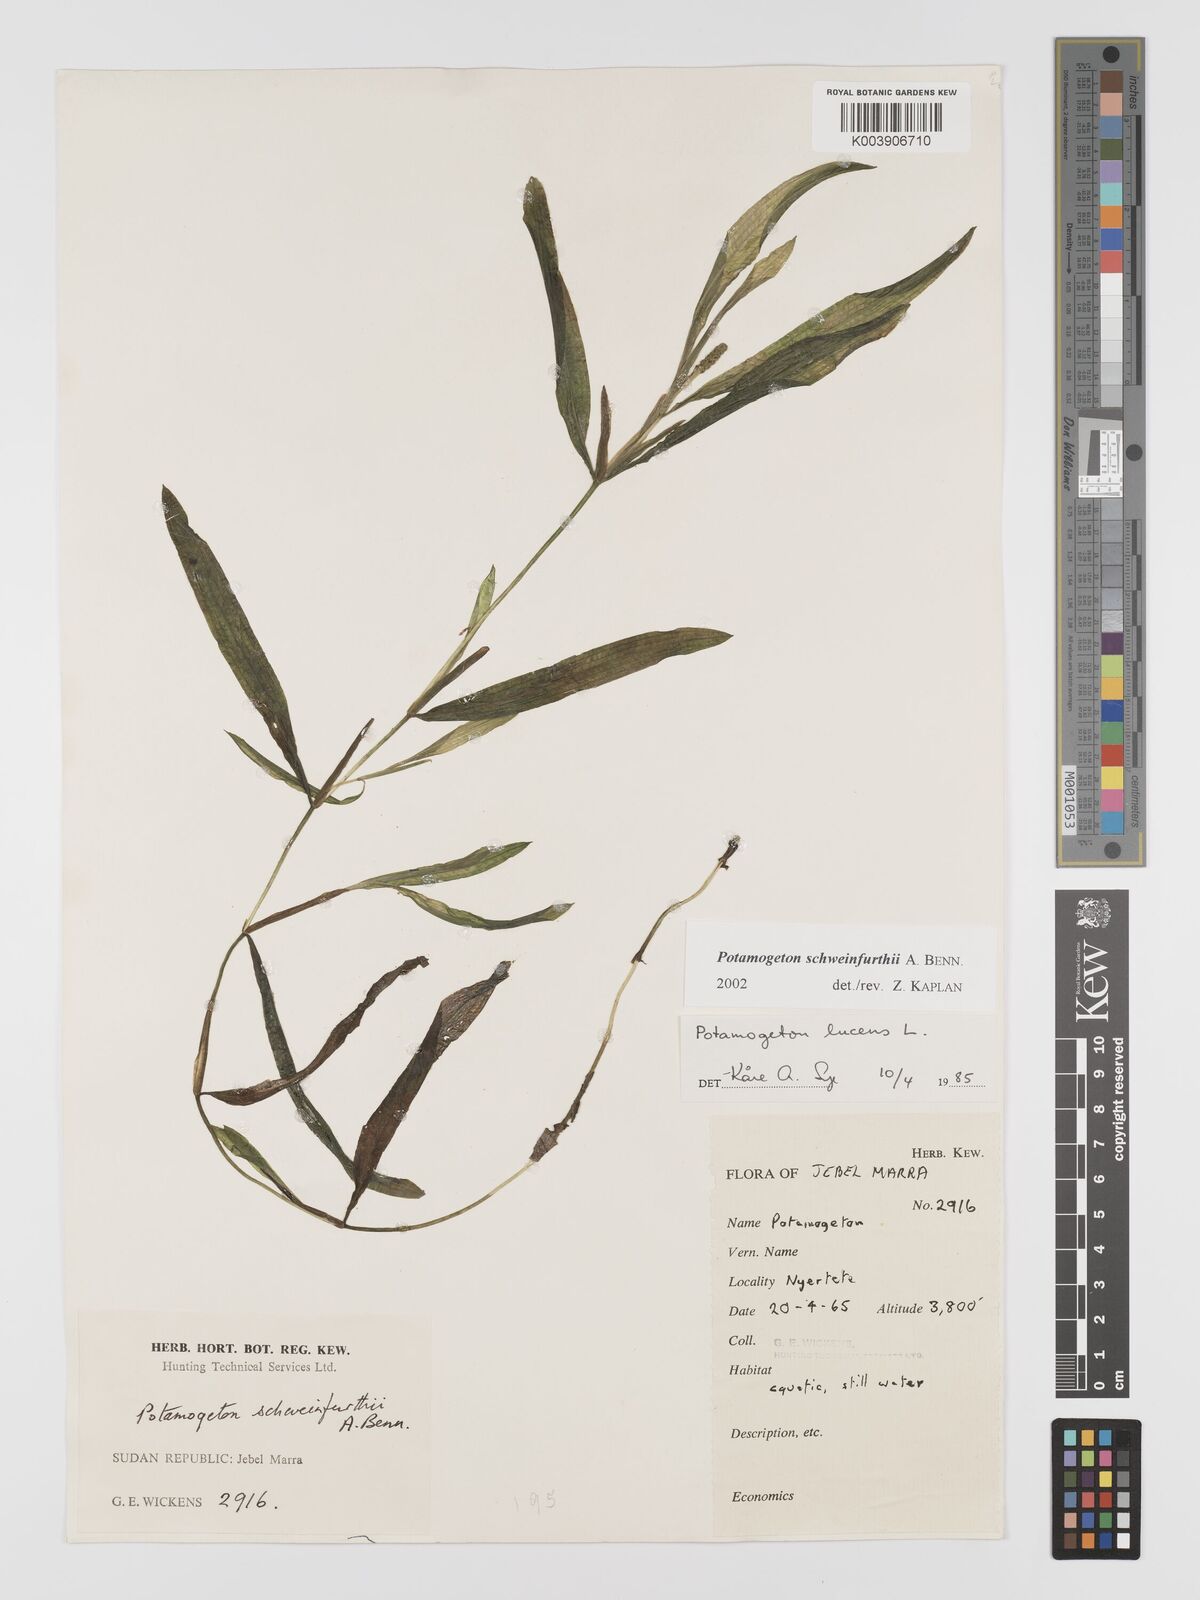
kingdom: Plantae
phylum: Tracheophyta
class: Liliopsida
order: Alismatales
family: Potamogetonaceae
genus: Potamogeton
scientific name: Potamogeton schweinfurthii
